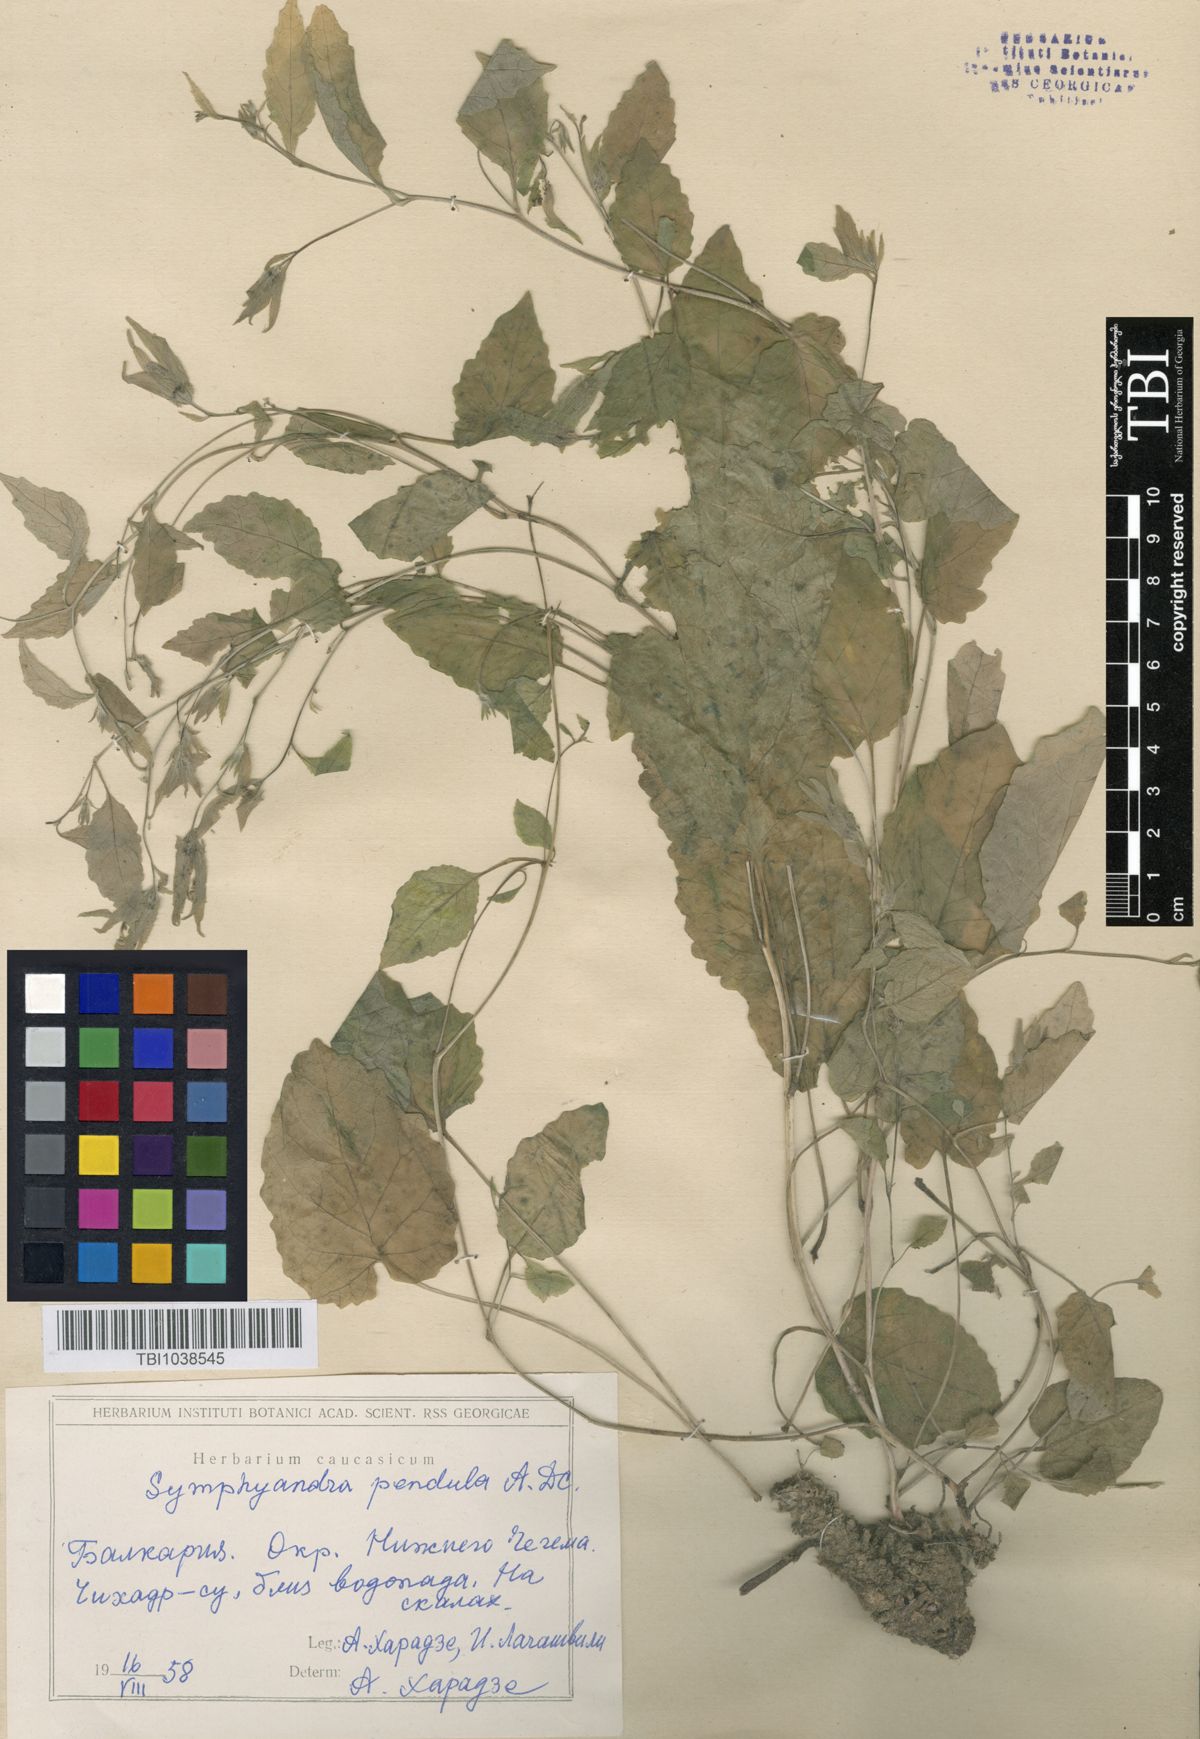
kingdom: Plantae
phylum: Tracheophyta
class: Magnoliopsida
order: Asterales
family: Campanulaceae
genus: Campanula
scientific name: Campanula pendula
